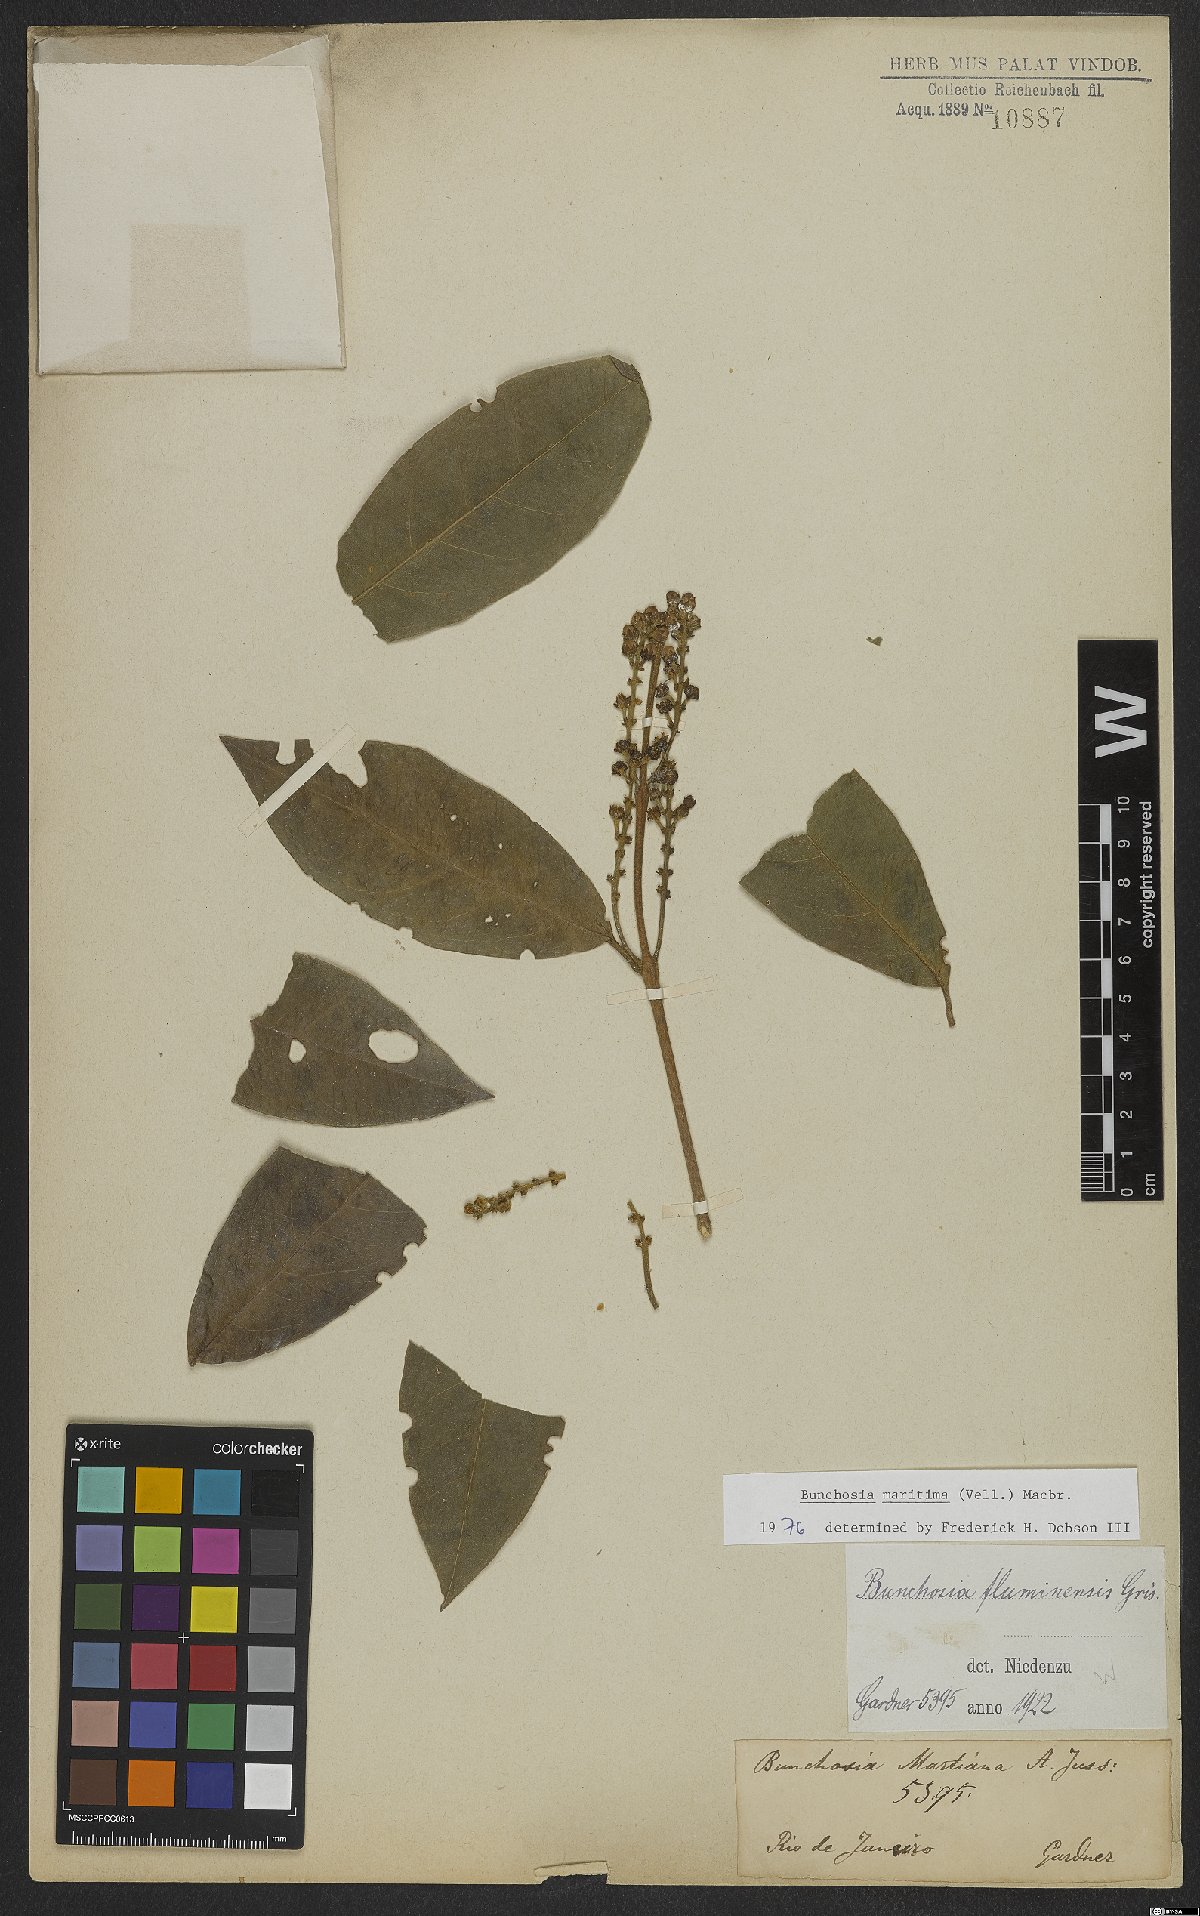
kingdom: Plantae
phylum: Tracheophyta
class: Magnoliopsida
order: Malpighiales
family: Malpighiaceae
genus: Bunchosia
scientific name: Bunchosia maritima
